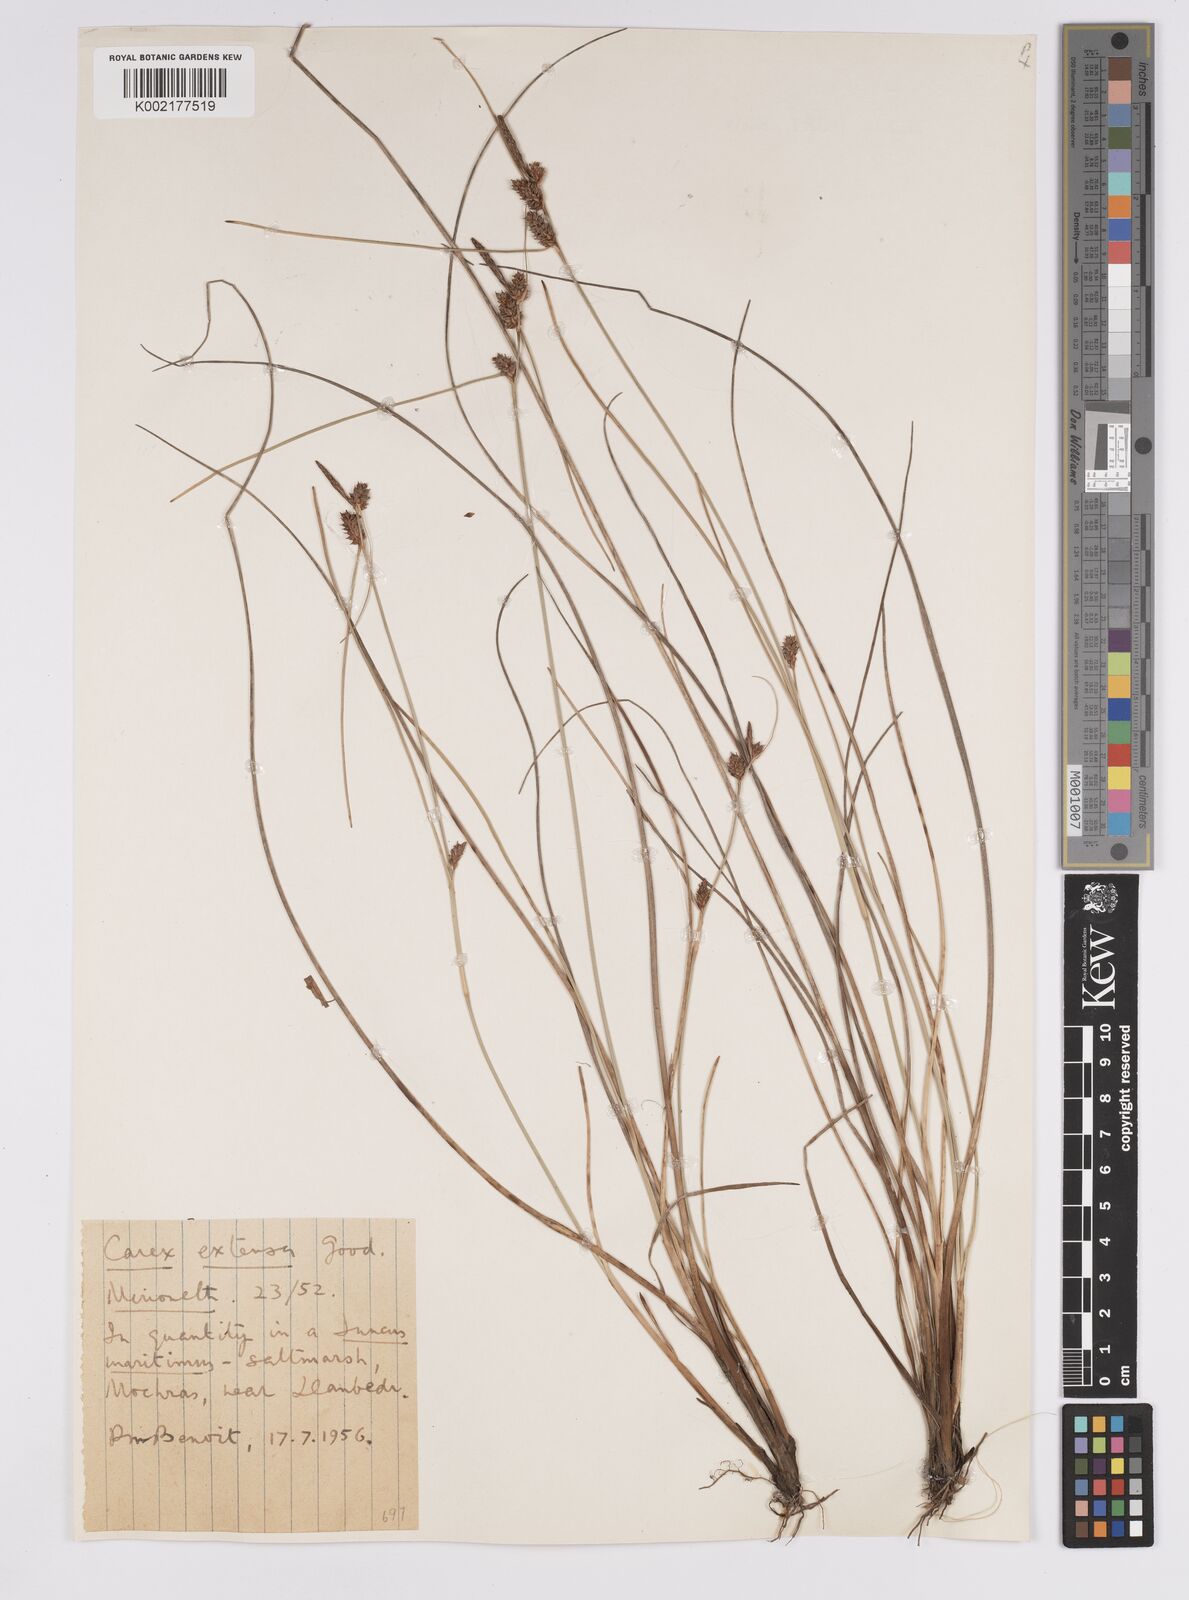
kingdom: Plantae
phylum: Tracheophyta
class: Liliopsida
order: Poales
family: Cyperaceae
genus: Carex
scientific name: Carex extensa
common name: Long-bracted sedge
